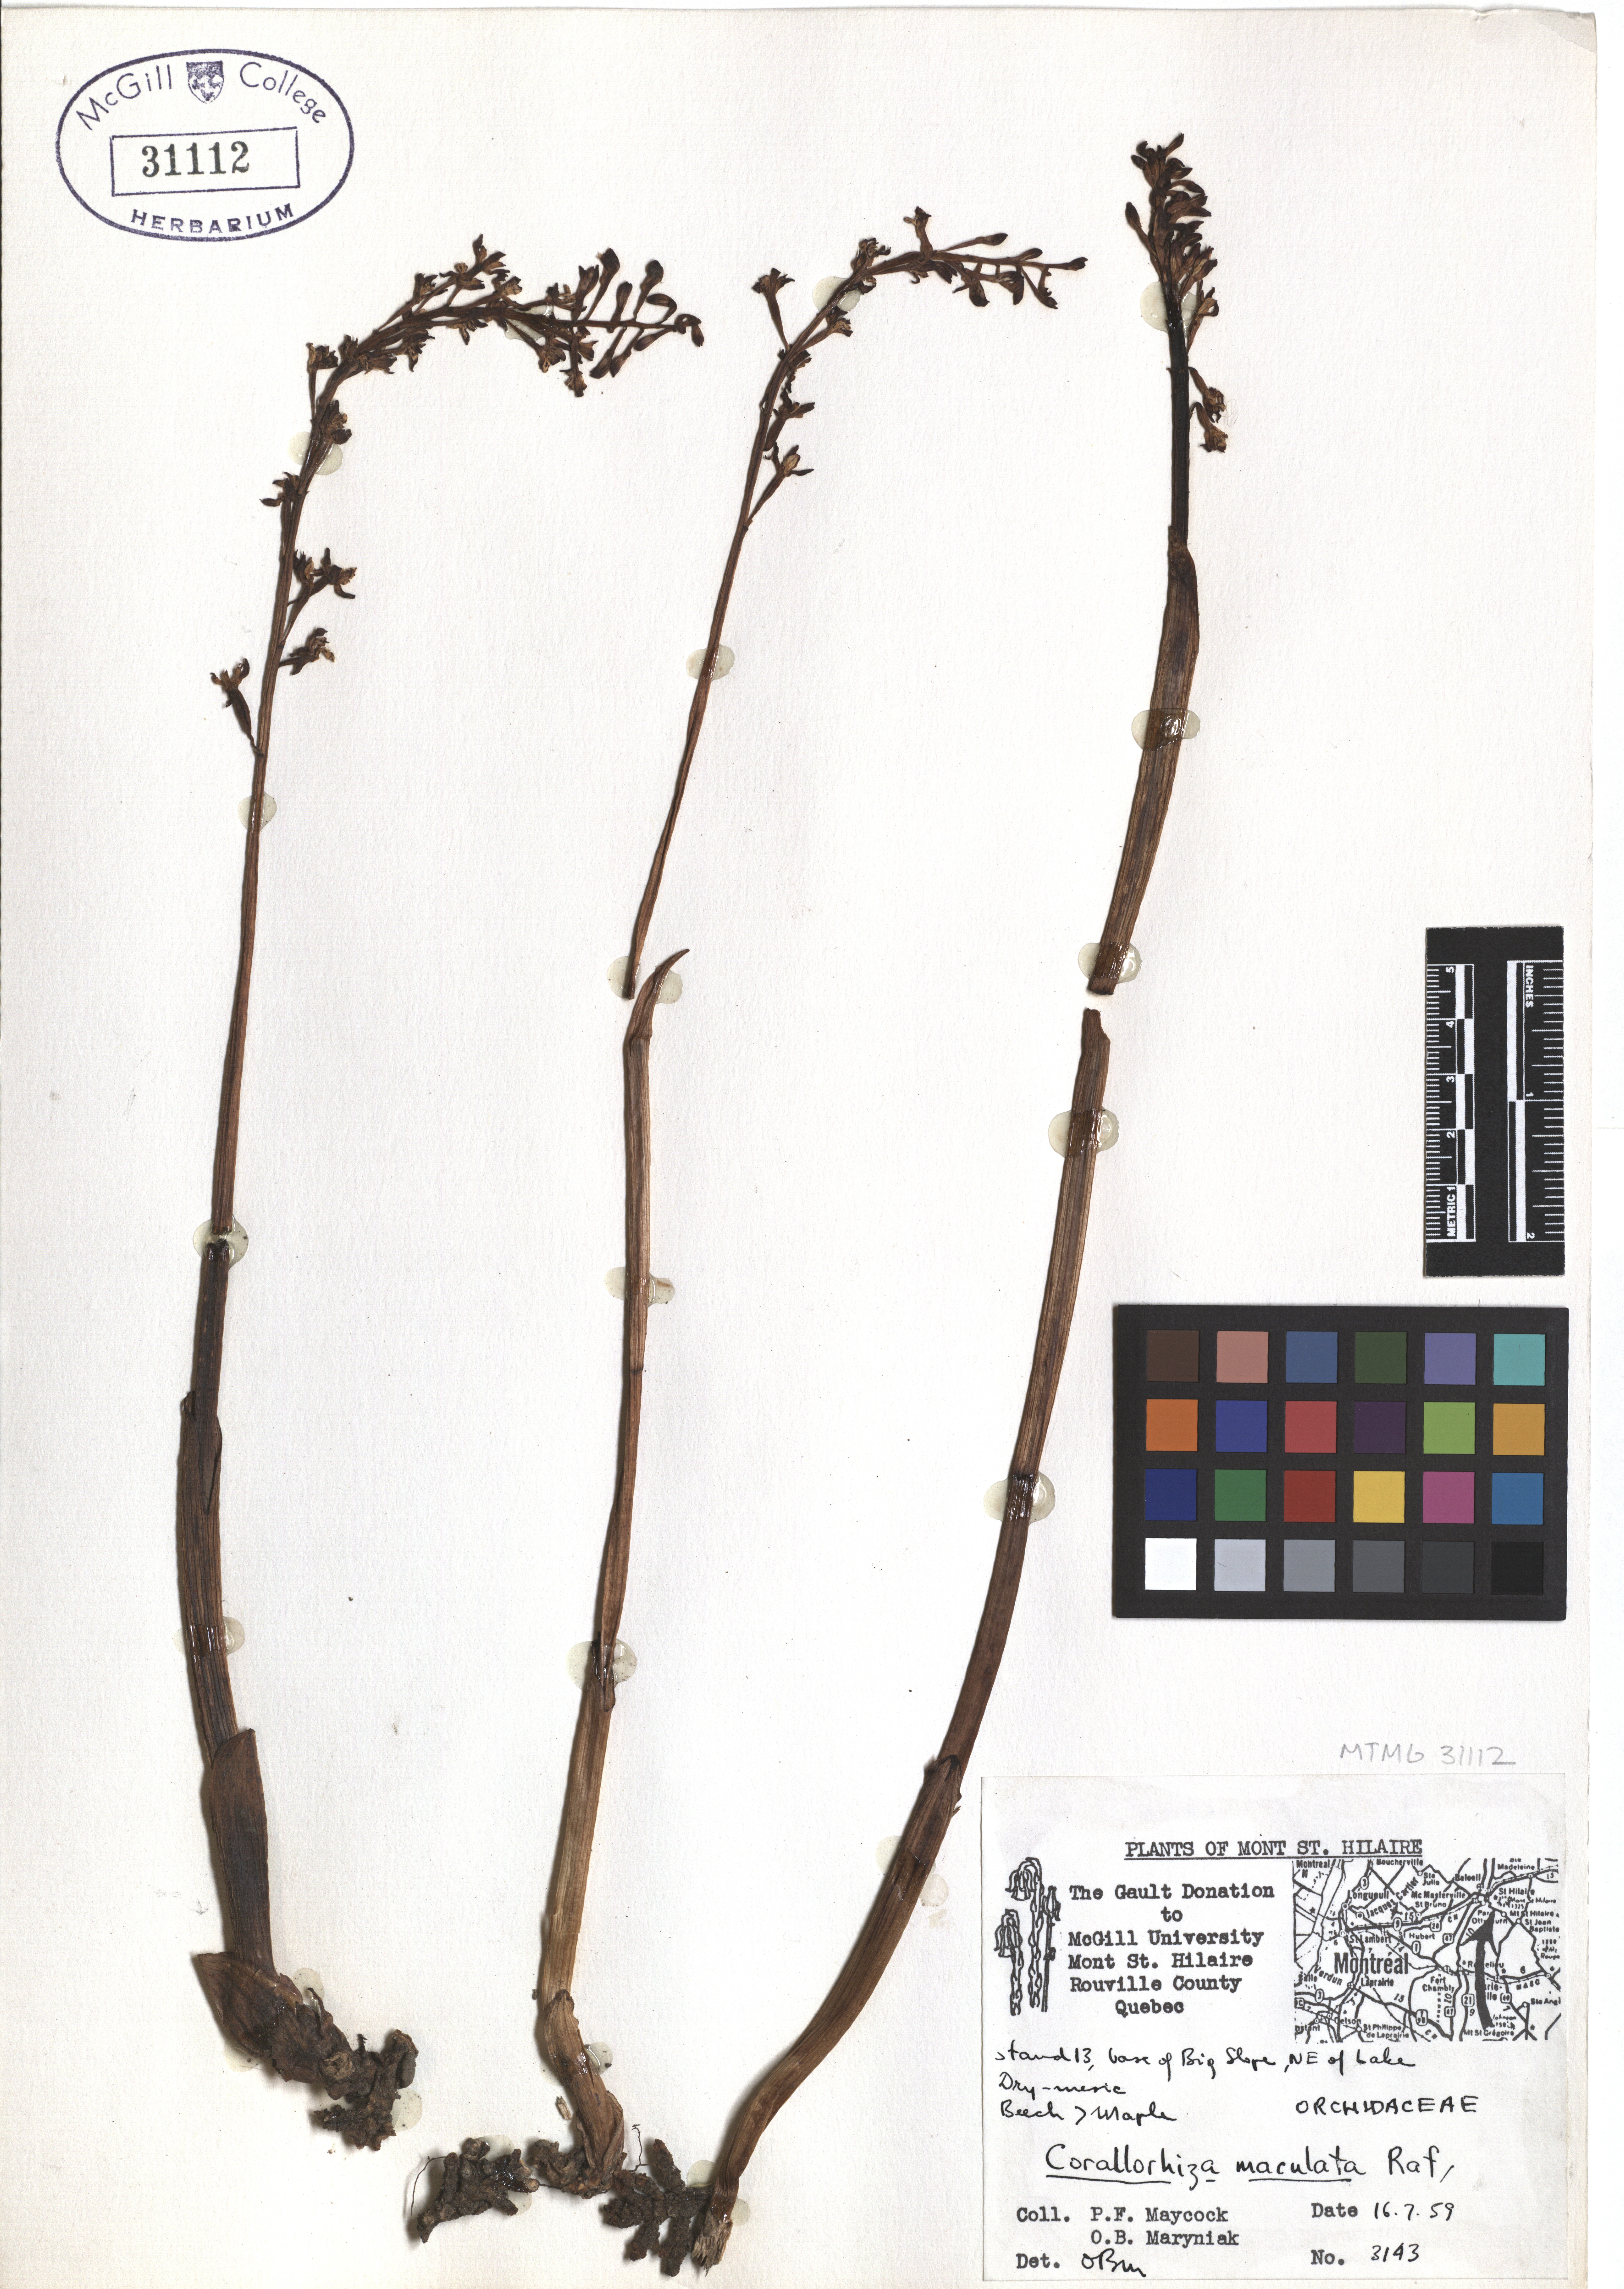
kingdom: Plantae
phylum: Tracheophyta
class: Liliopsida
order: Asparagales
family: Orchidaceae
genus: Corallorhiza
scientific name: Corallorhiza maculata
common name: Spotted coralroot
